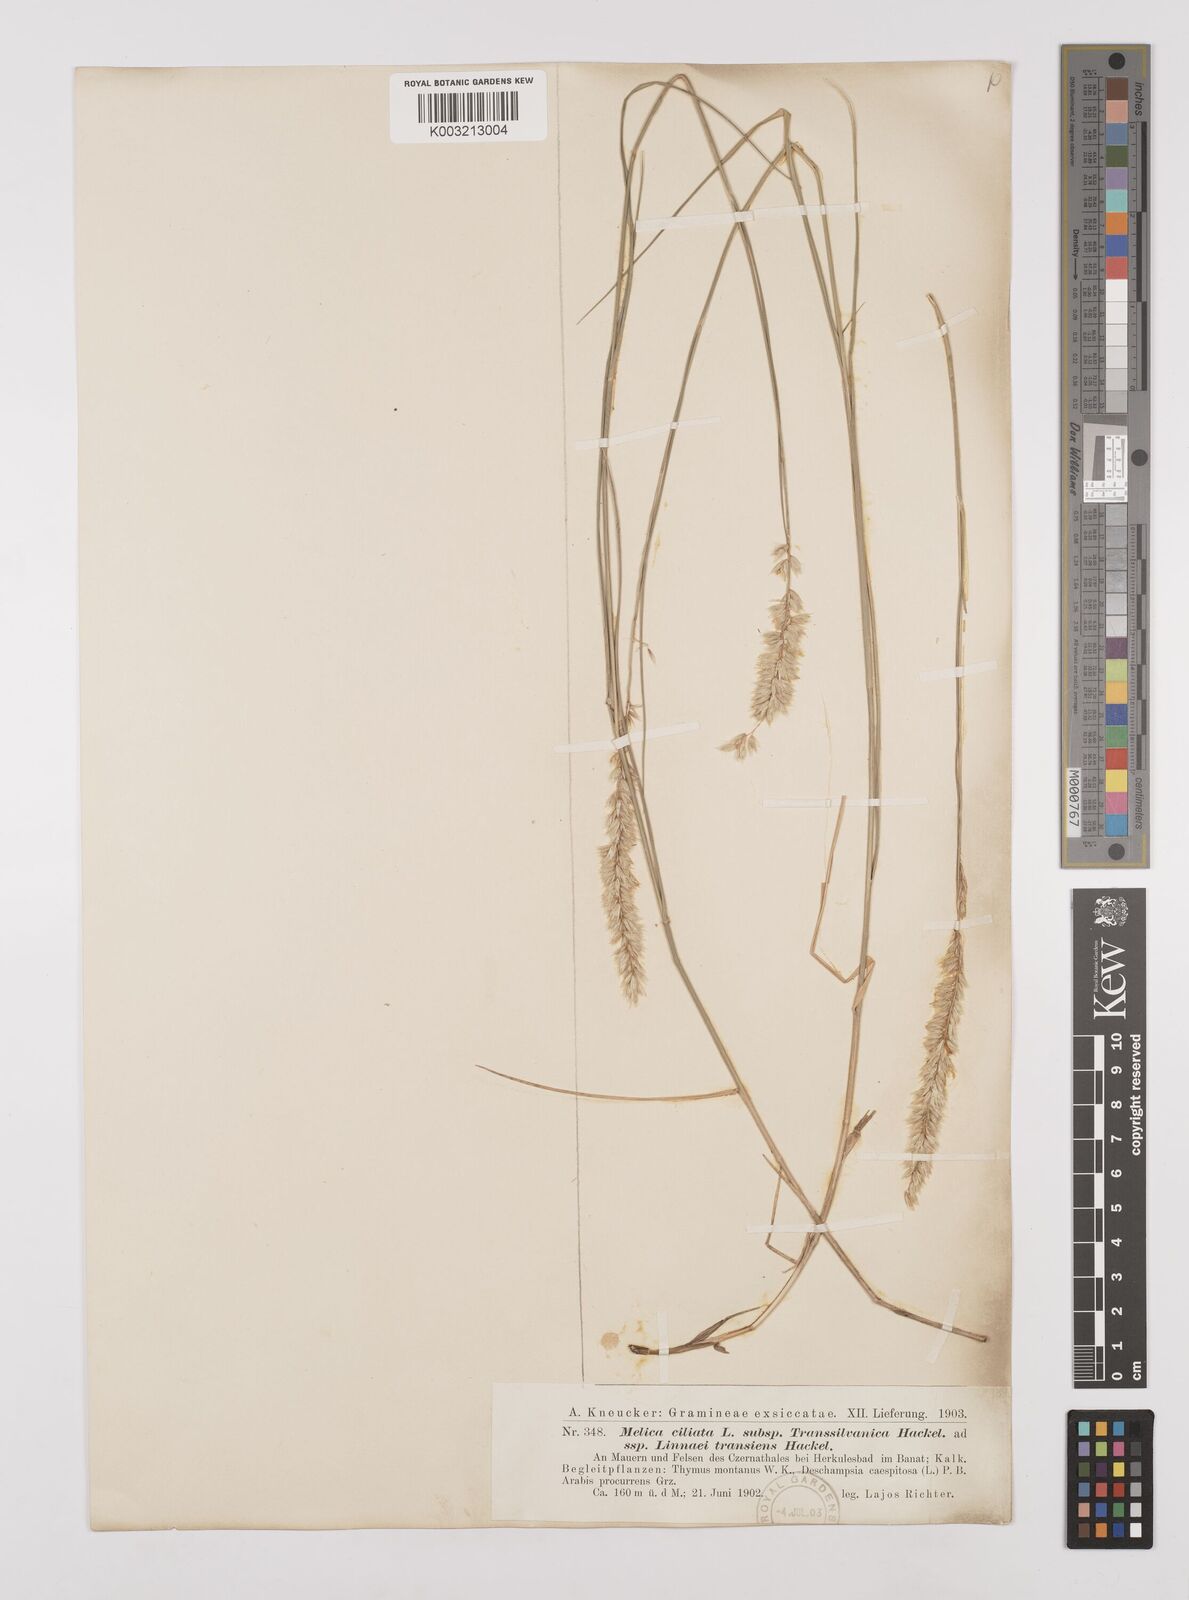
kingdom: Plantae
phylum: Tracheophyta
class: Liliopsida
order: Poales
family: Poaceae
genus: Melica
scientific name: Melica transsilvanica
